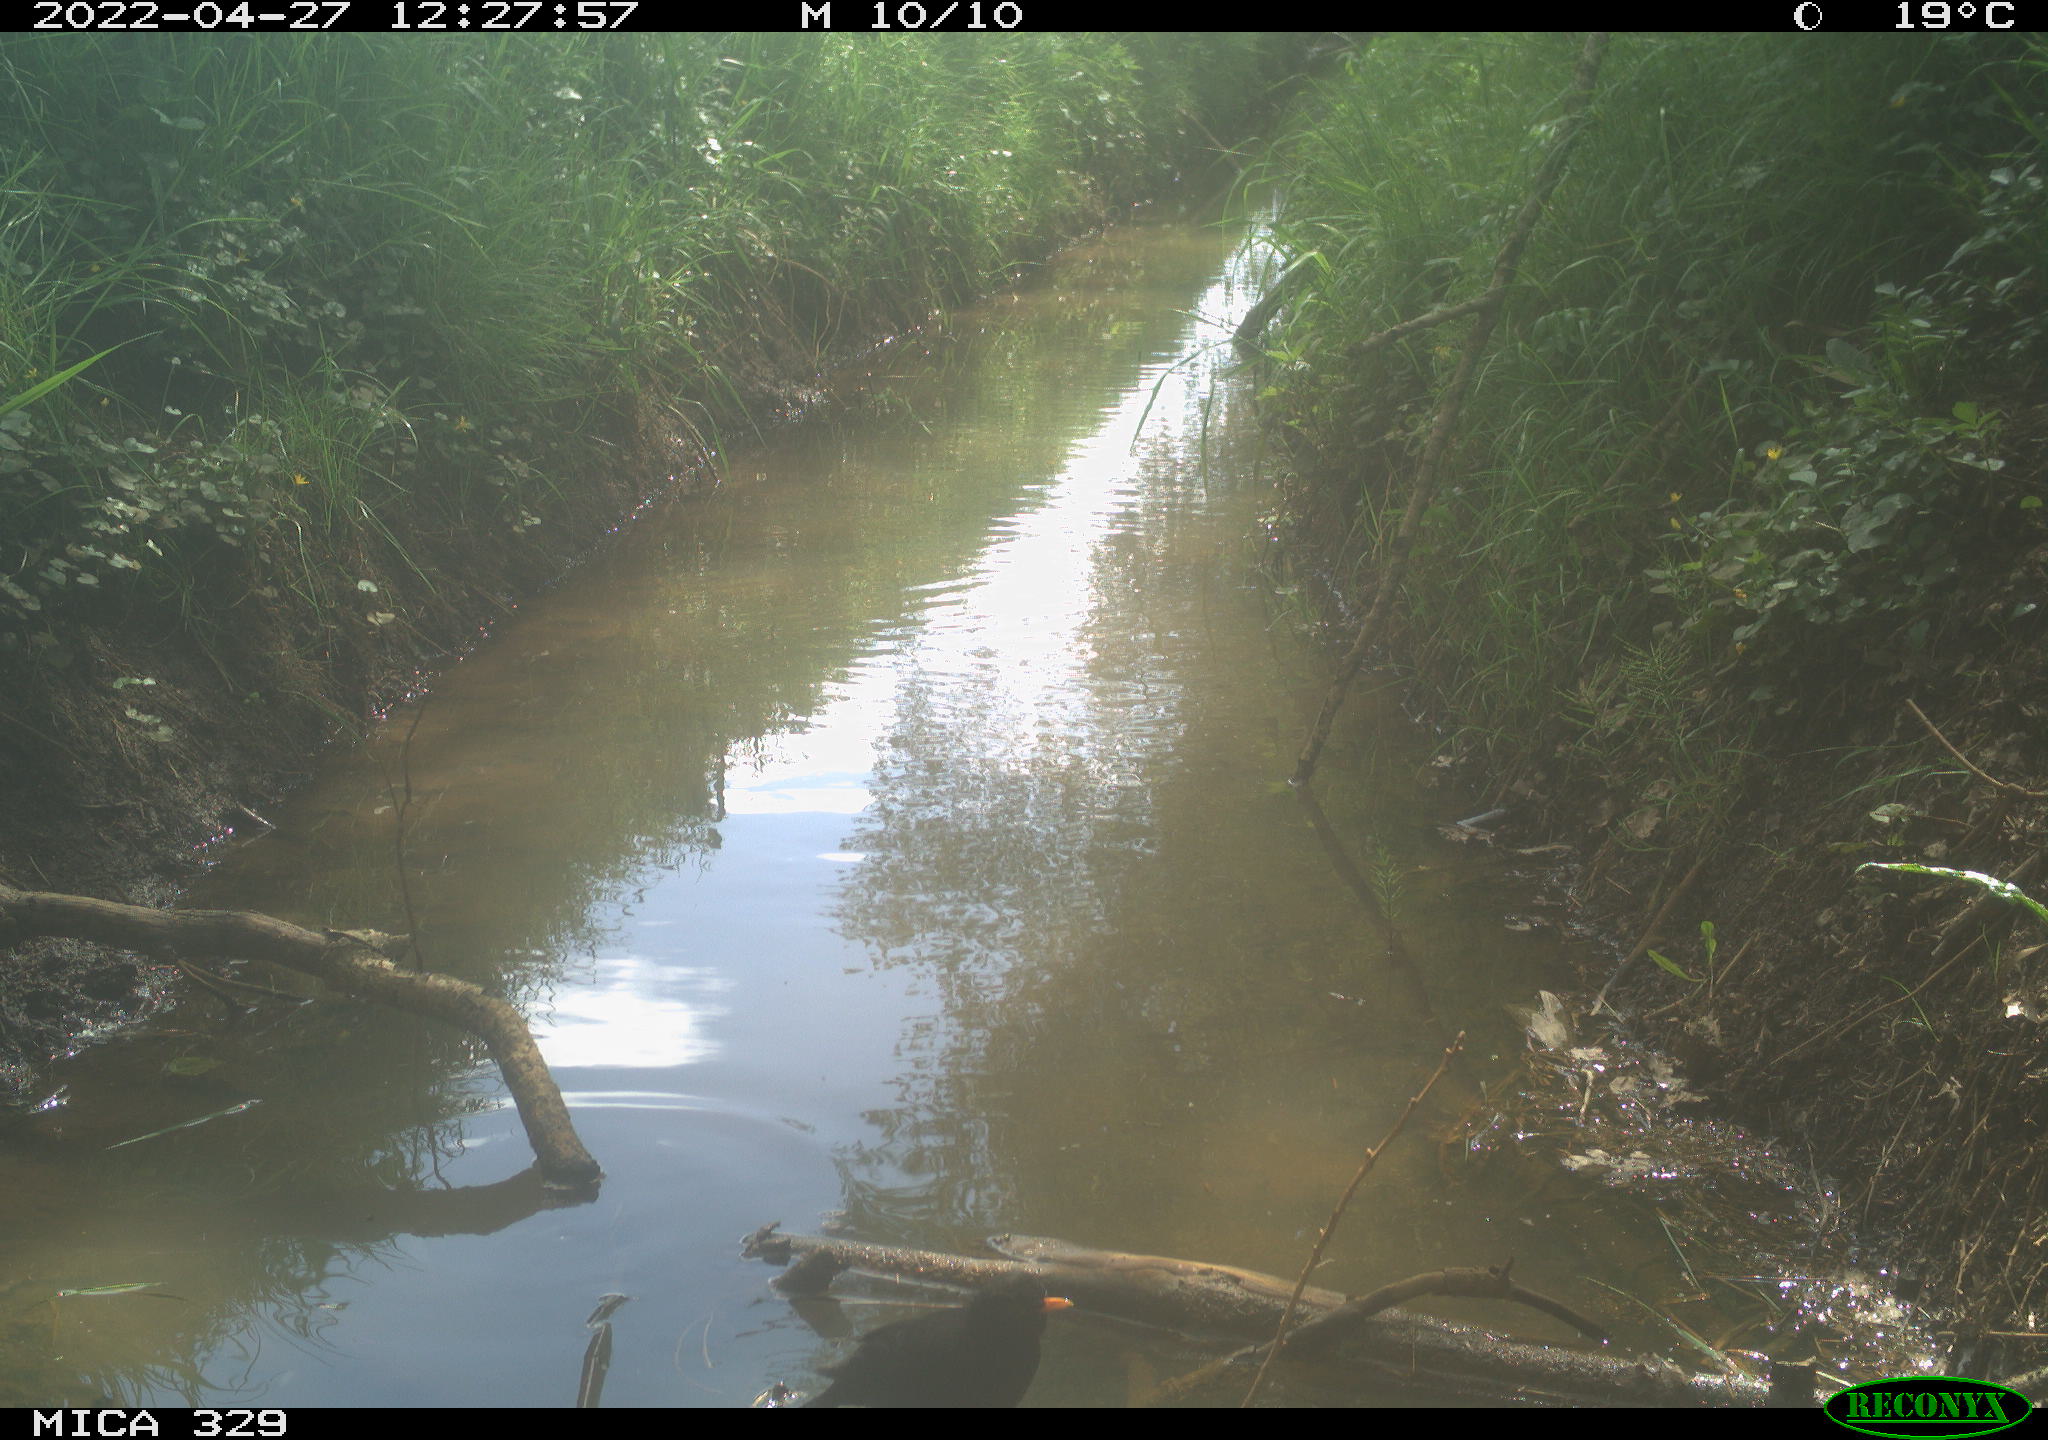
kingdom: Animalia
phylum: Chordata
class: Aves
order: Gruiformes
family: Rallidae
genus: Gallinula
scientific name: Gallinula chloropus
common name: Common moorhen
